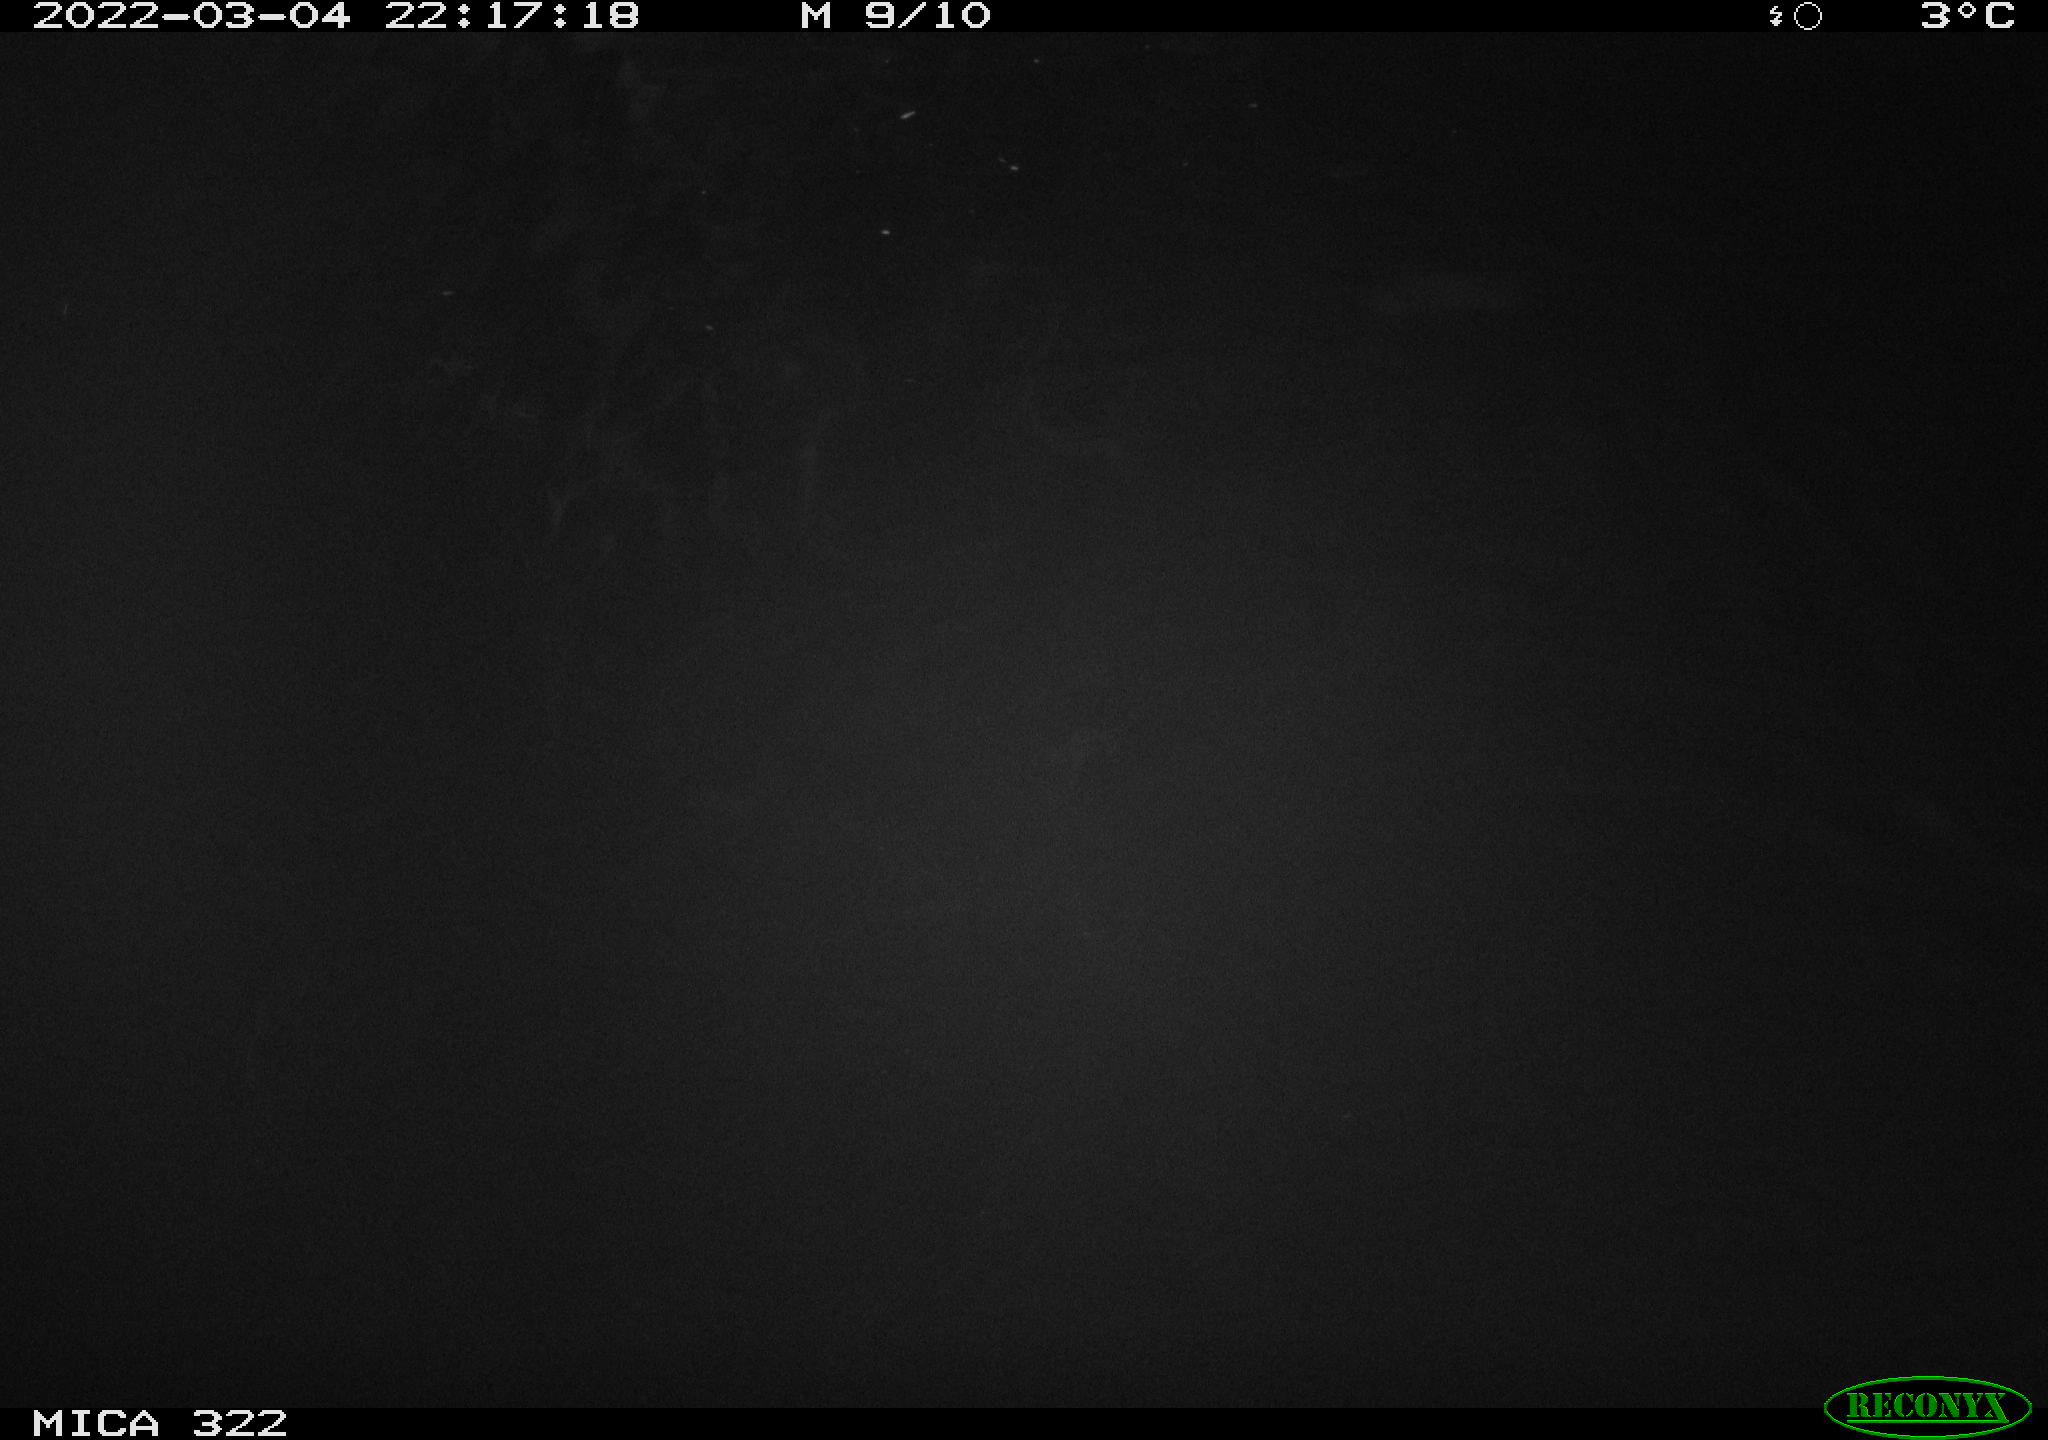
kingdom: Animalia
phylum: Chordata
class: Aves
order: Gruiformes
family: Rallidae
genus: Fulica
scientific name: Fulica atra
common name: Eurasian coot
